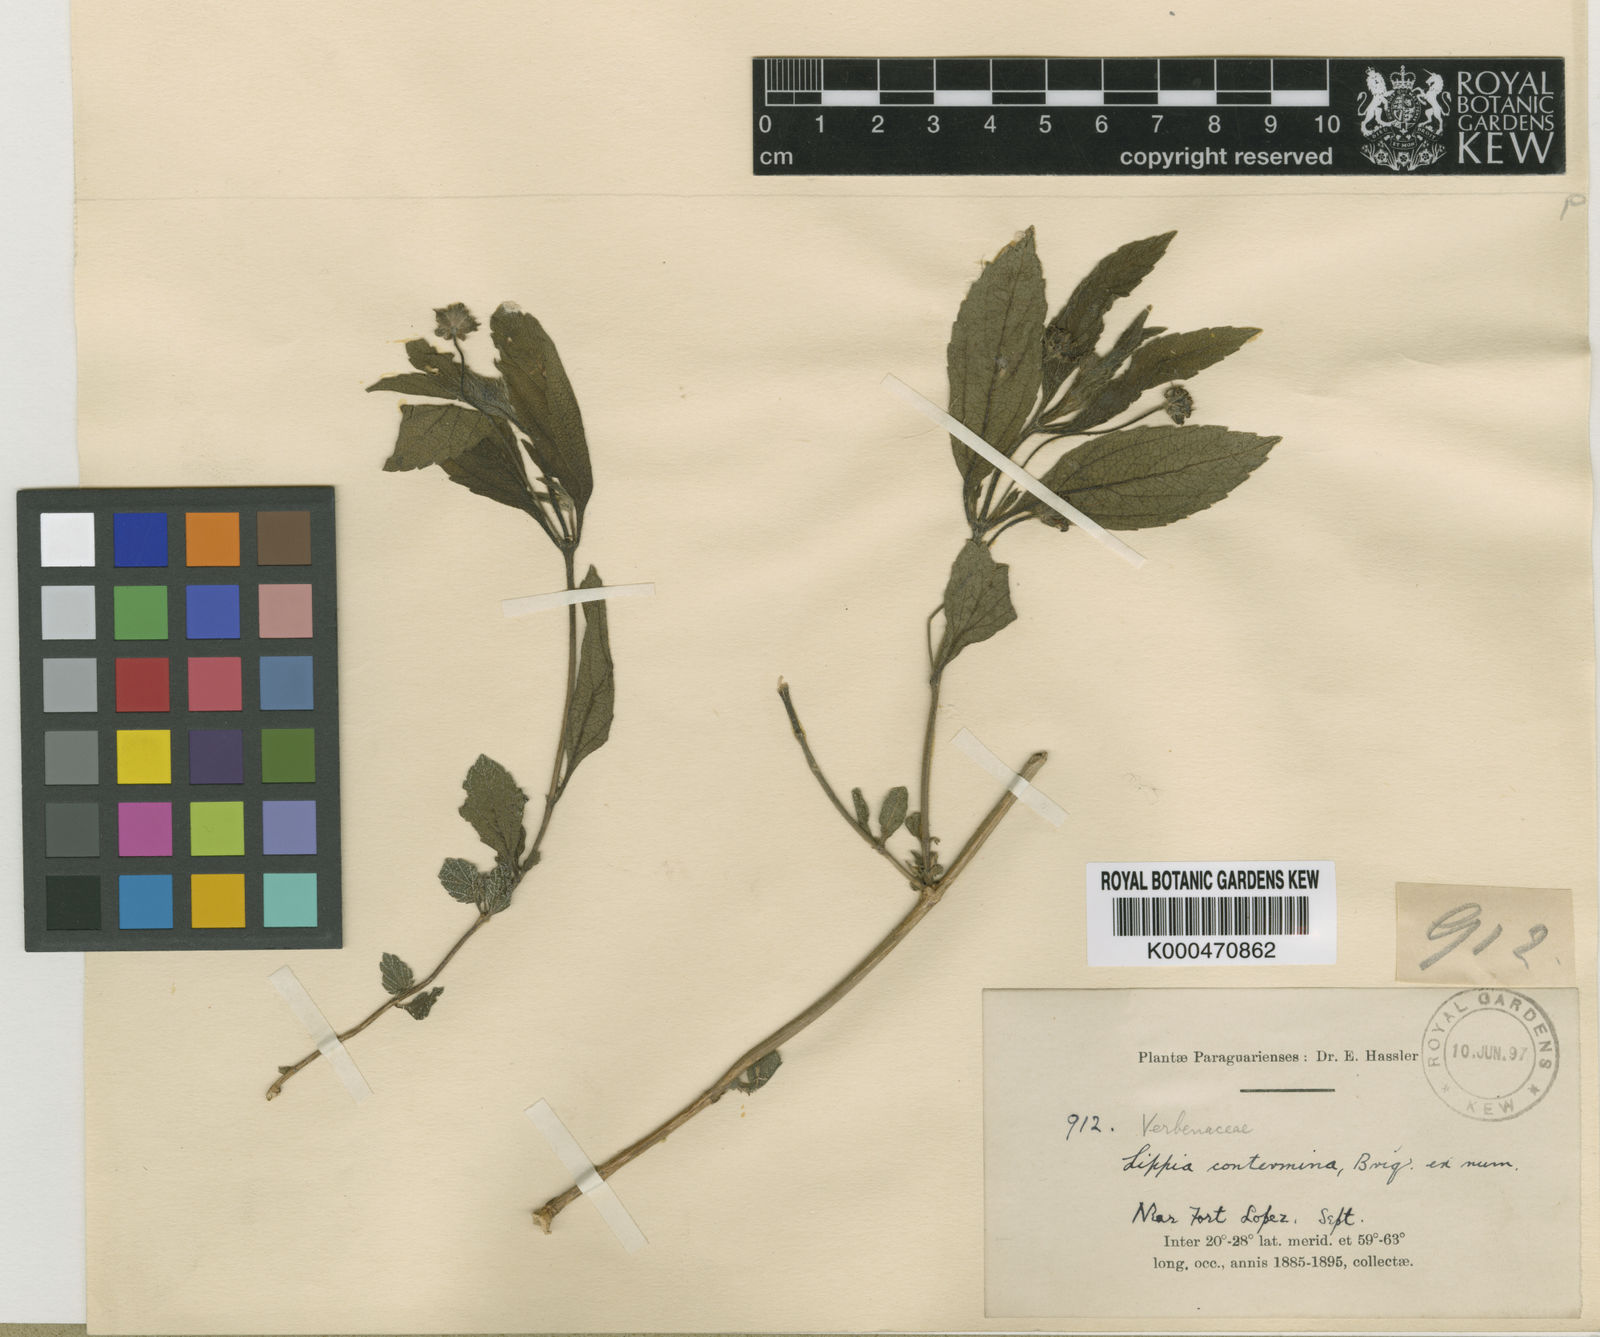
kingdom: Plantae
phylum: Tracheophyta
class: Magnoliopsida
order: Lamiales
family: Verbenaceae
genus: Lippia
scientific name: Lippia asperrima
